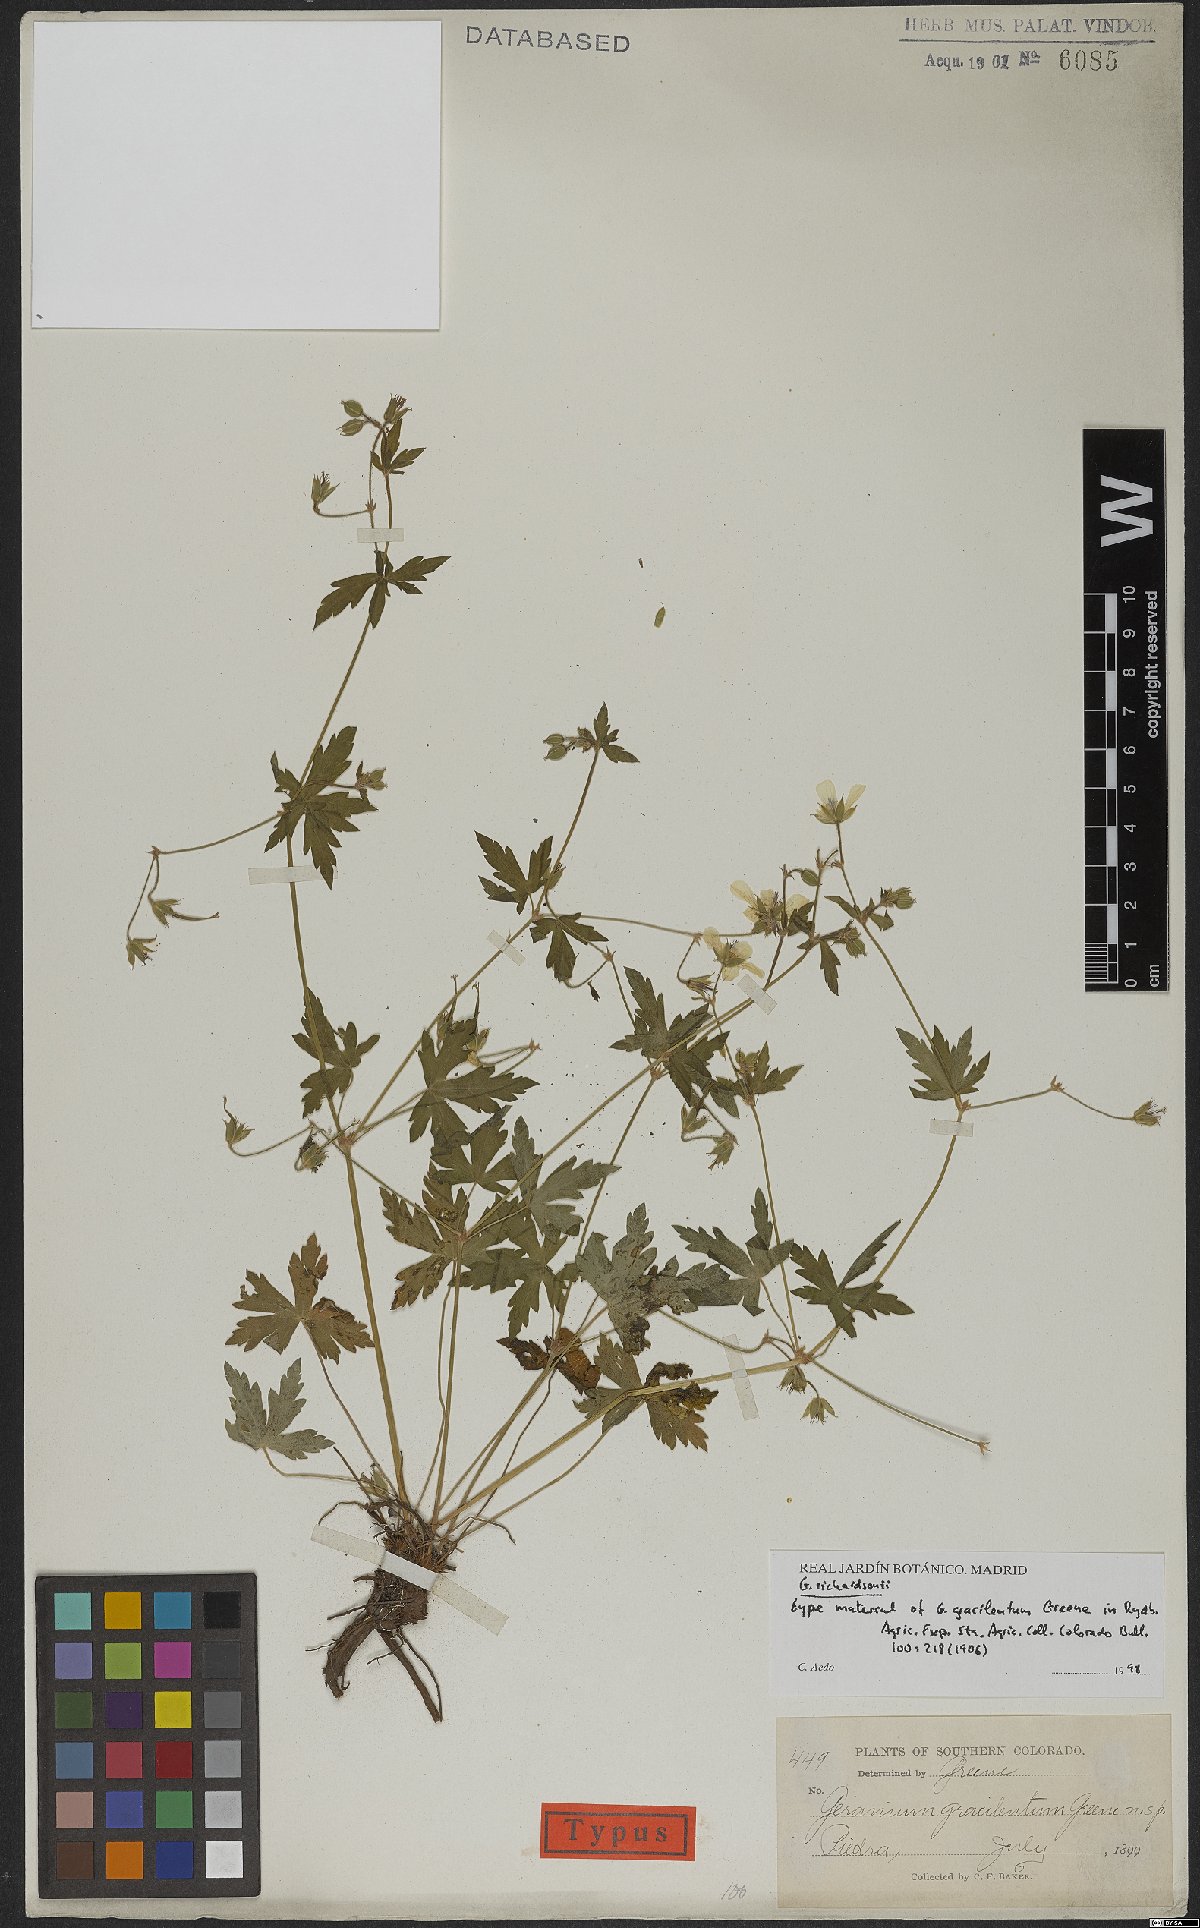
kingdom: Plantae
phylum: Tracheophyta
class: Magnoliopsida
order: Geraniales
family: Geraniaceae
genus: Geranium
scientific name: Geranium richardsonii
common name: Richardson's crane's-bill
